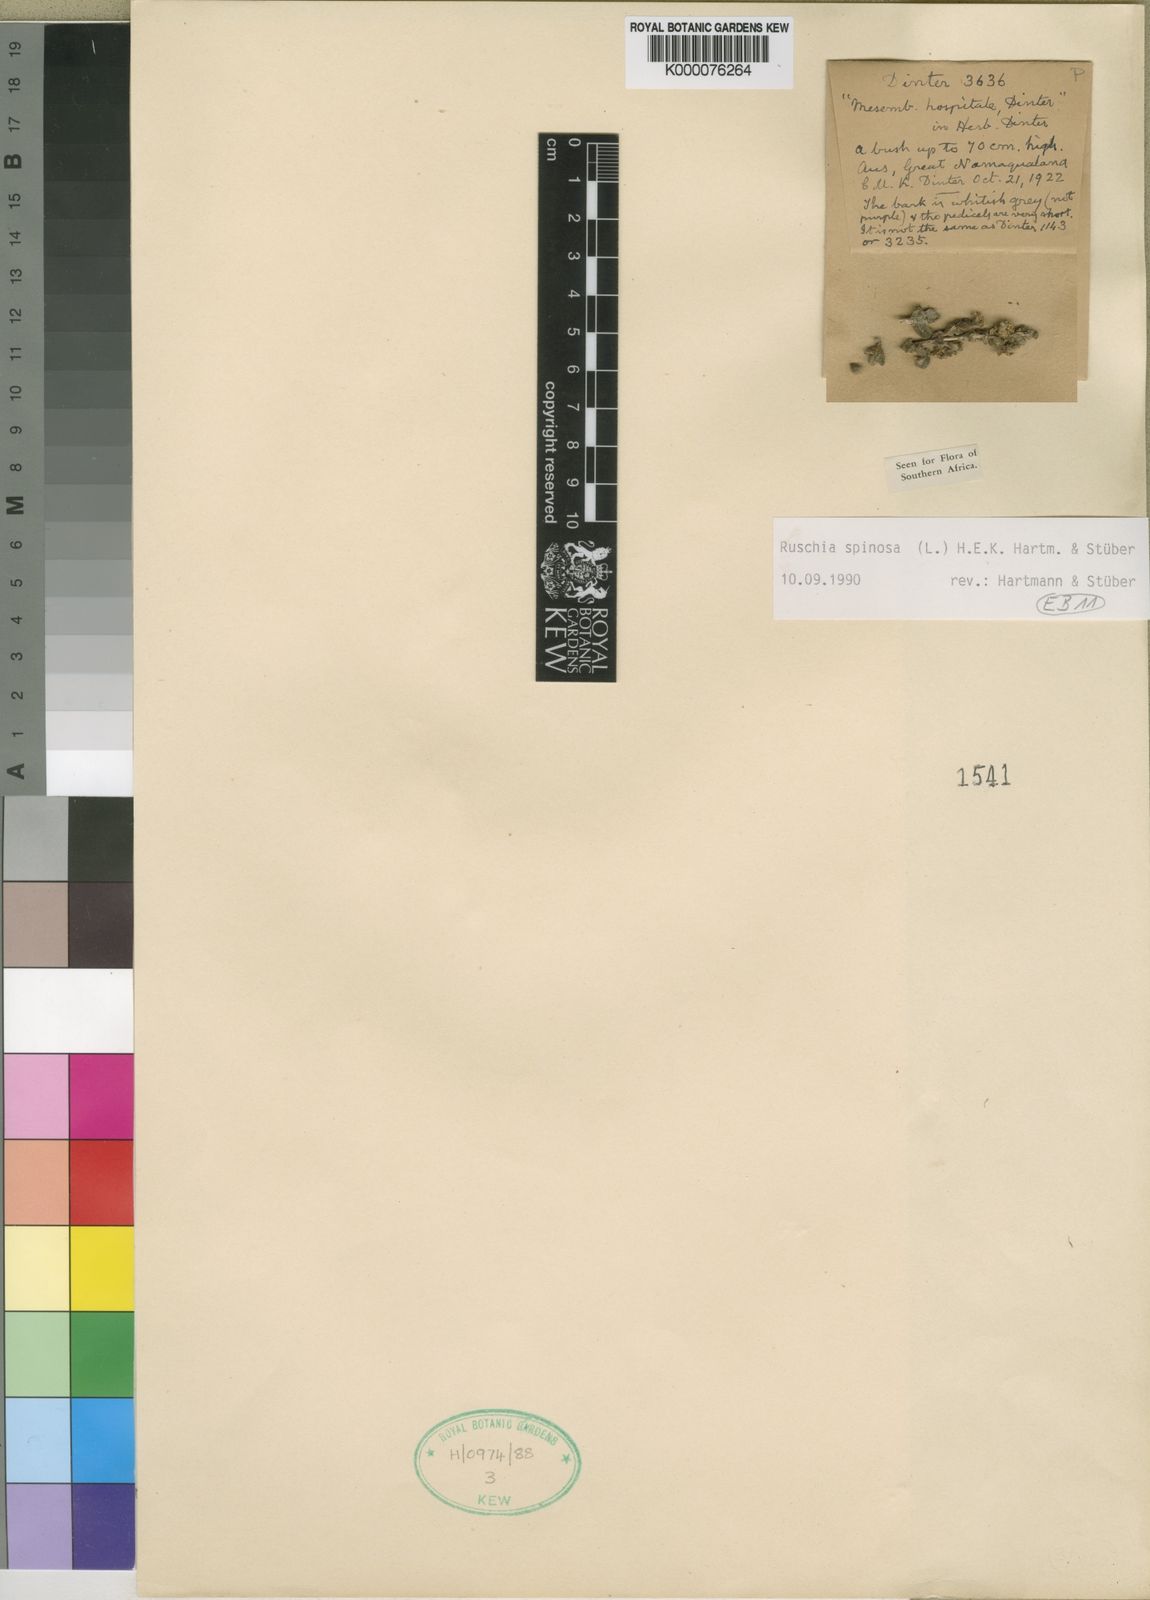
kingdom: Plantae
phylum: Tracheophyta
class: Magnoliopsida
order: Caryophyllales
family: Aizoaceae
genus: Ruschia
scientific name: Ruschia
